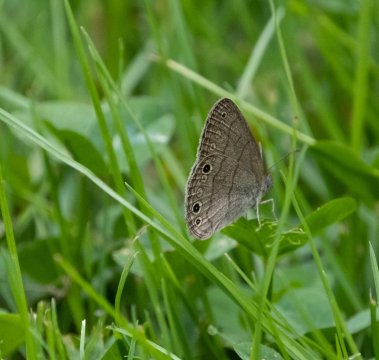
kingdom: Animalia
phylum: Arthropoda
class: Insecta
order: Lepidoptera
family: Nymphalidae
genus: Hermeuptychia
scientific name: Hermeuptychia hermes
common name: Carolina Satyr
